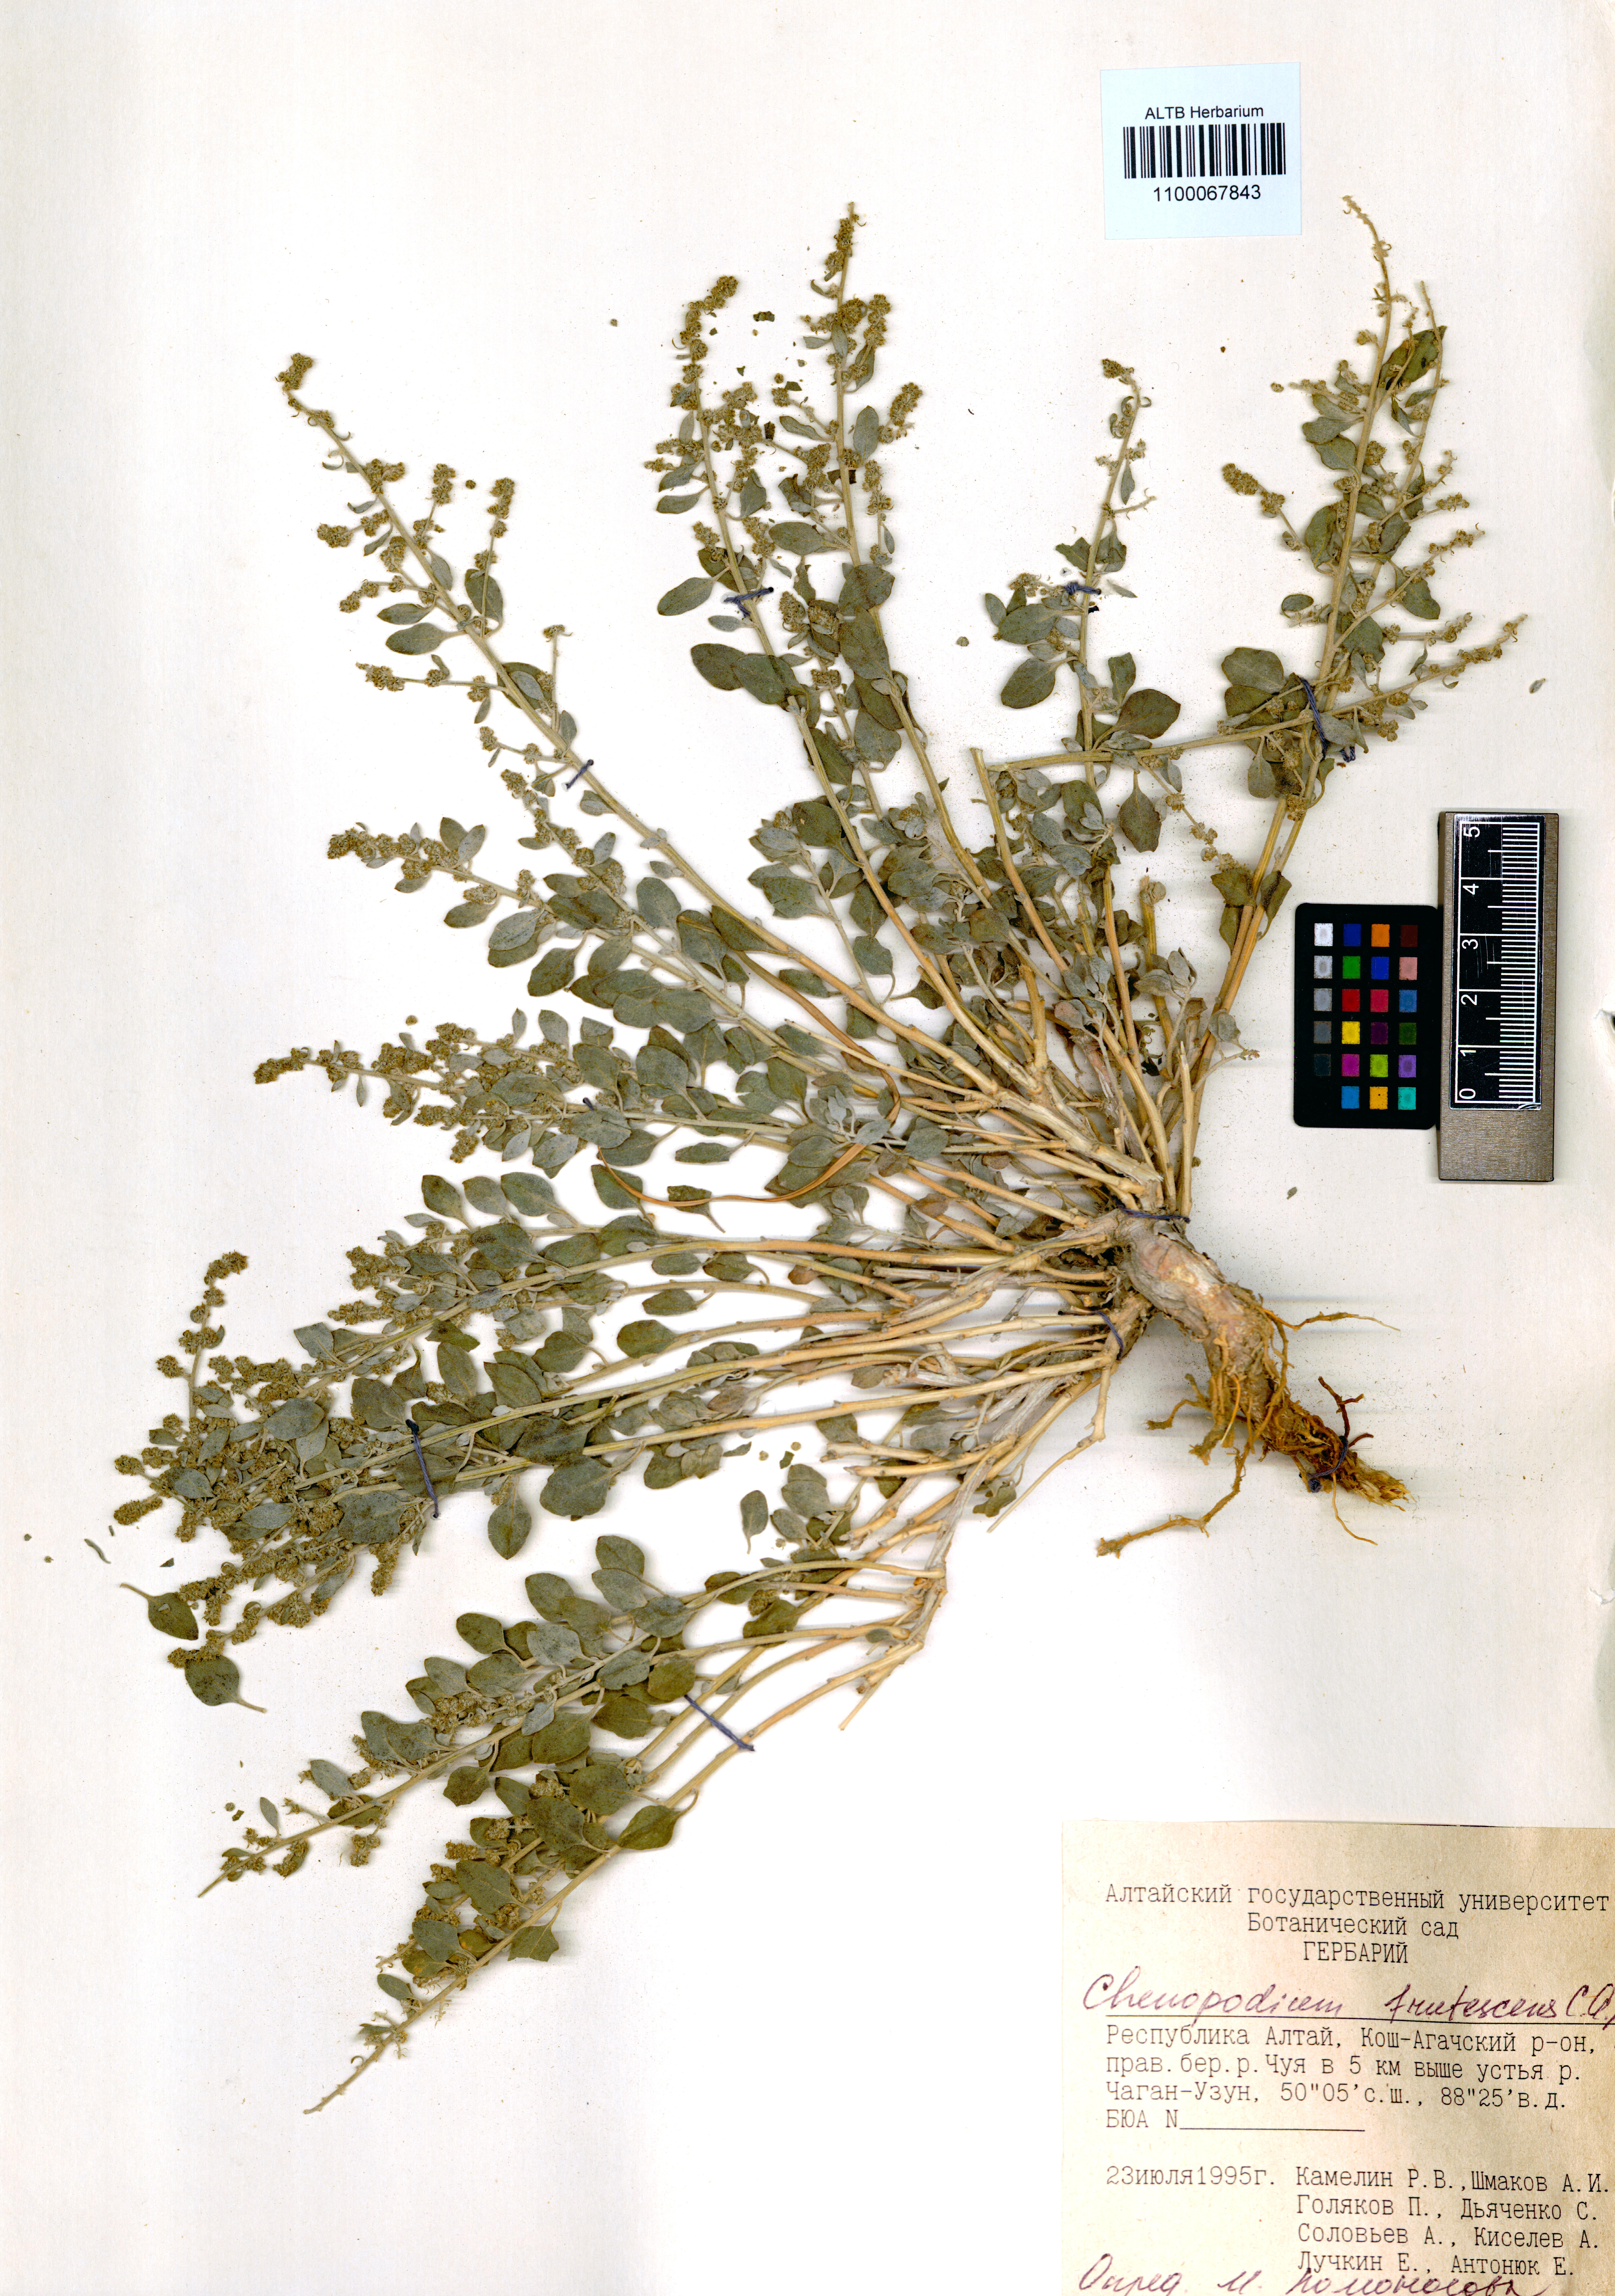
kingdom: Plantae
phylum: Tracheophyta
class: Magnoliopsida
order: Caryophyllales
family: Amaranthaceae
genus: Chenopodium
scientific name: Chenopodium frutescens
